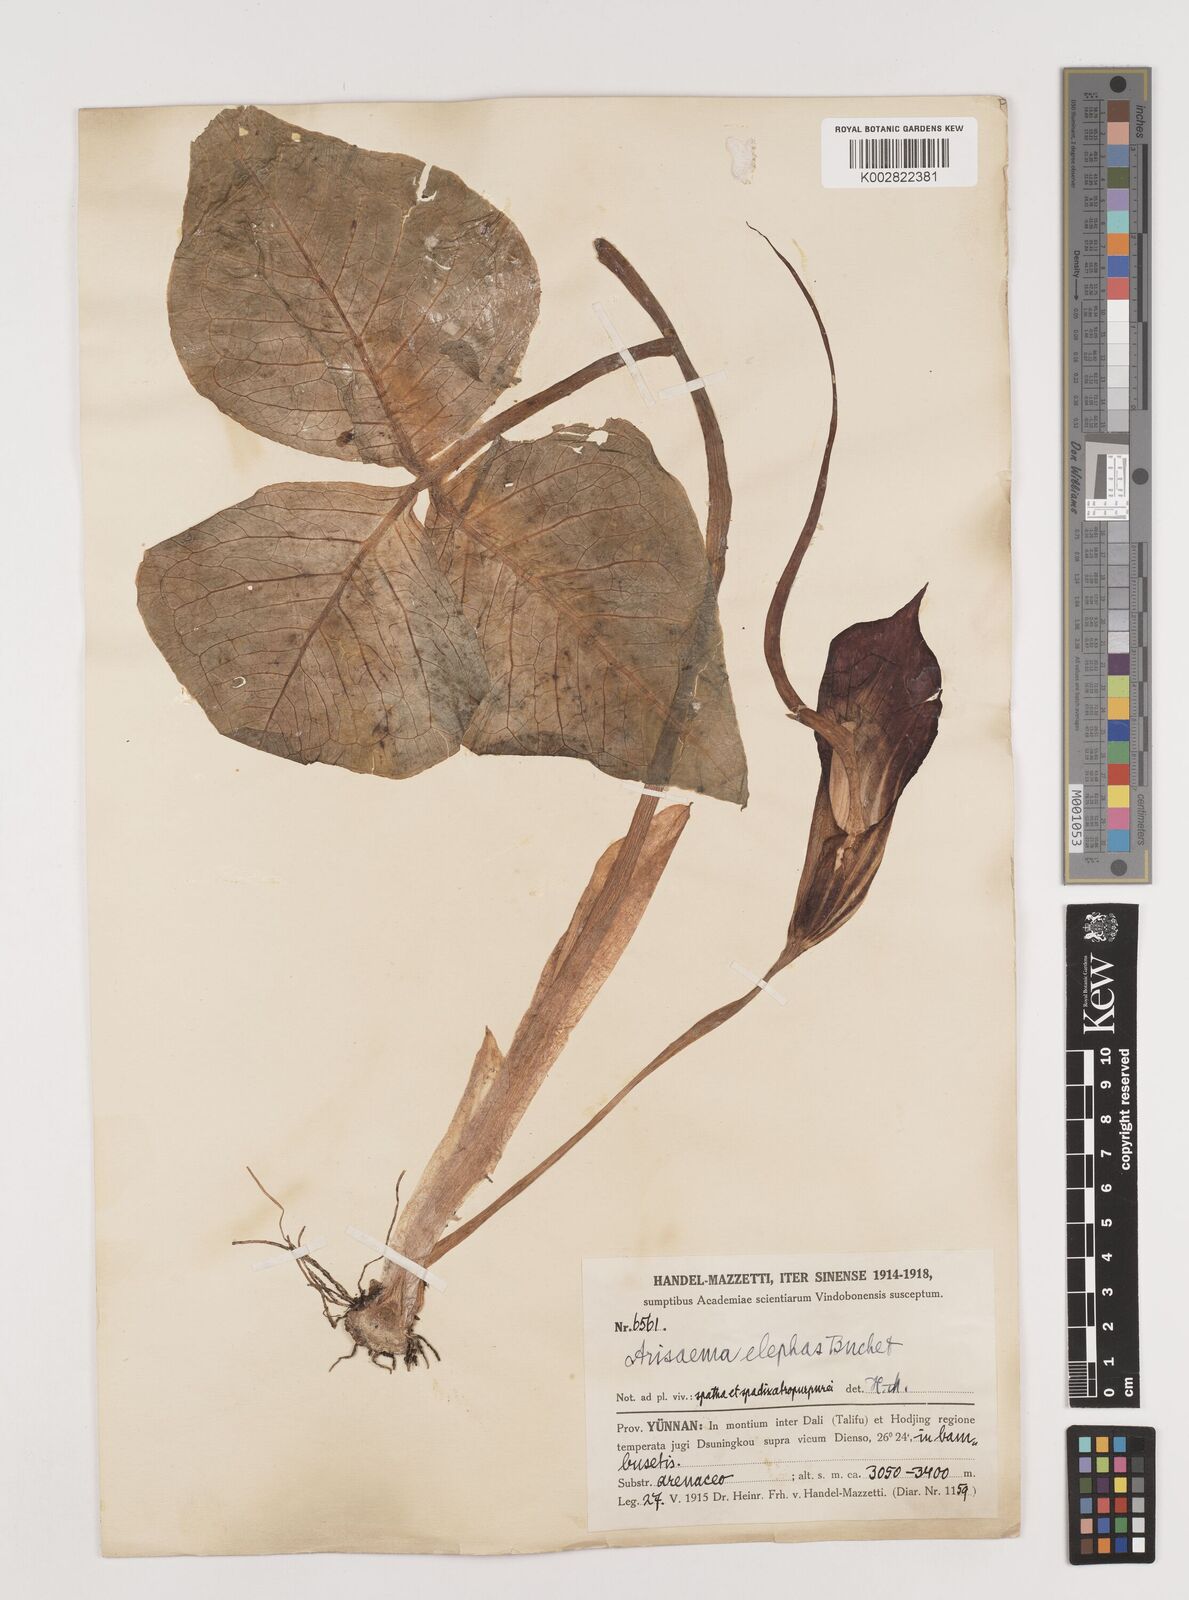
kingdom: Plantae
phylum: Tracheophyta
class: Liliopsida
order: Alismatales
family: Araceae
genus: Arisaema
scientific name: Arisaema elephas
